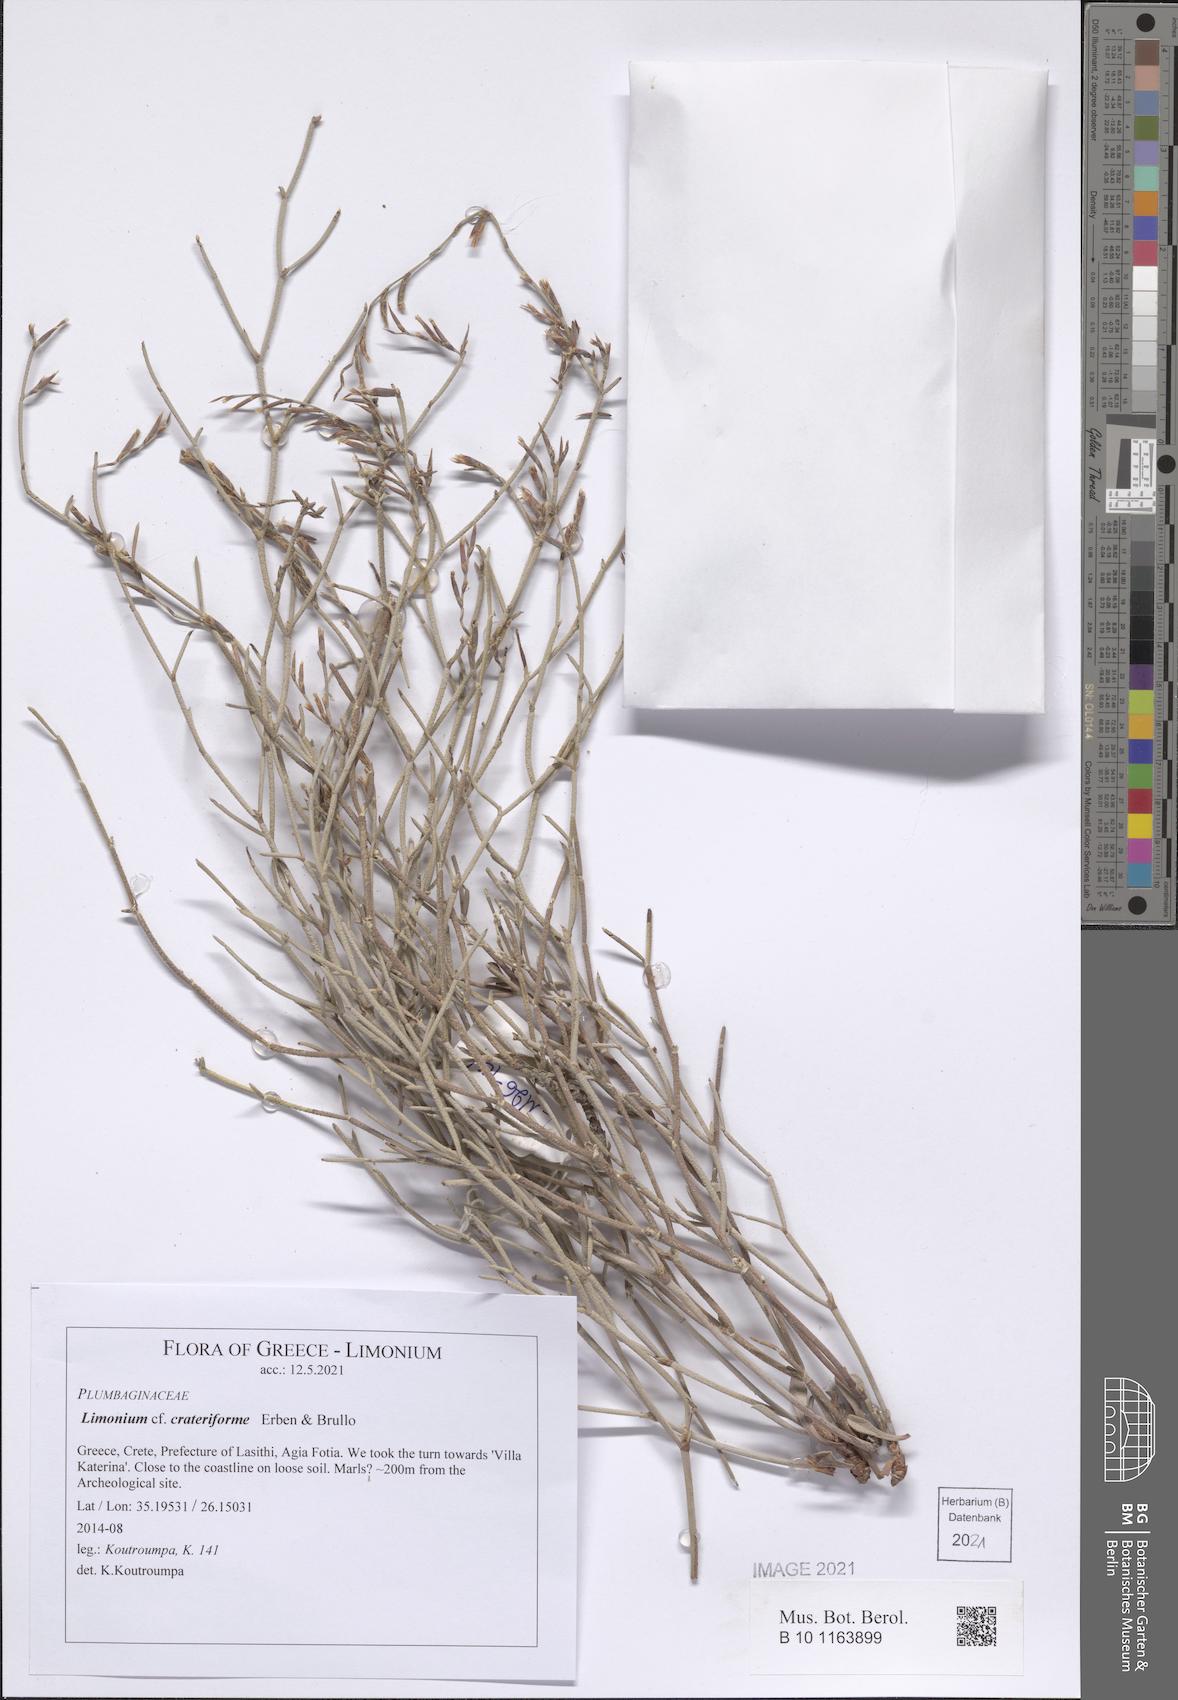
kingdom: Plantae
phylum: Tracheophyta
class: Magnoliopsida
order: Caryophyllales
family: Plumbaginaceae
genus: Limonium
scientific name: Limonium crateriforme
